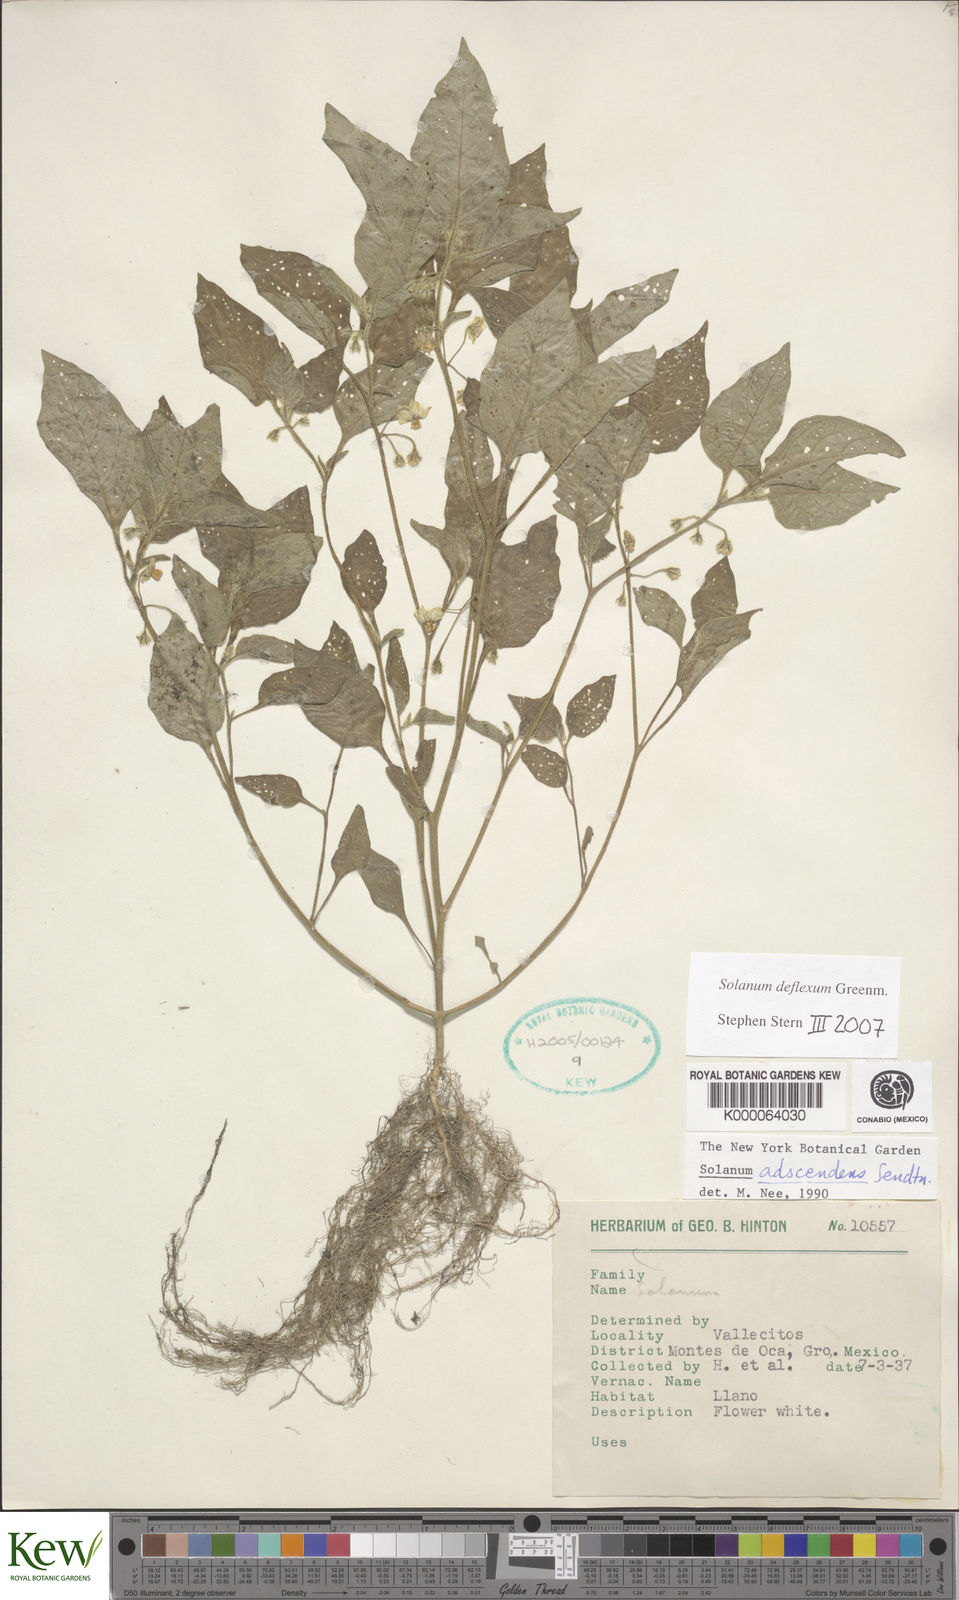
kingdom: Plantae
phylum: Tracheophyta
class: Magnoliopsida
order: Solanales
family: Solanaceae
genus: Solanum
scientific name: Solanum
